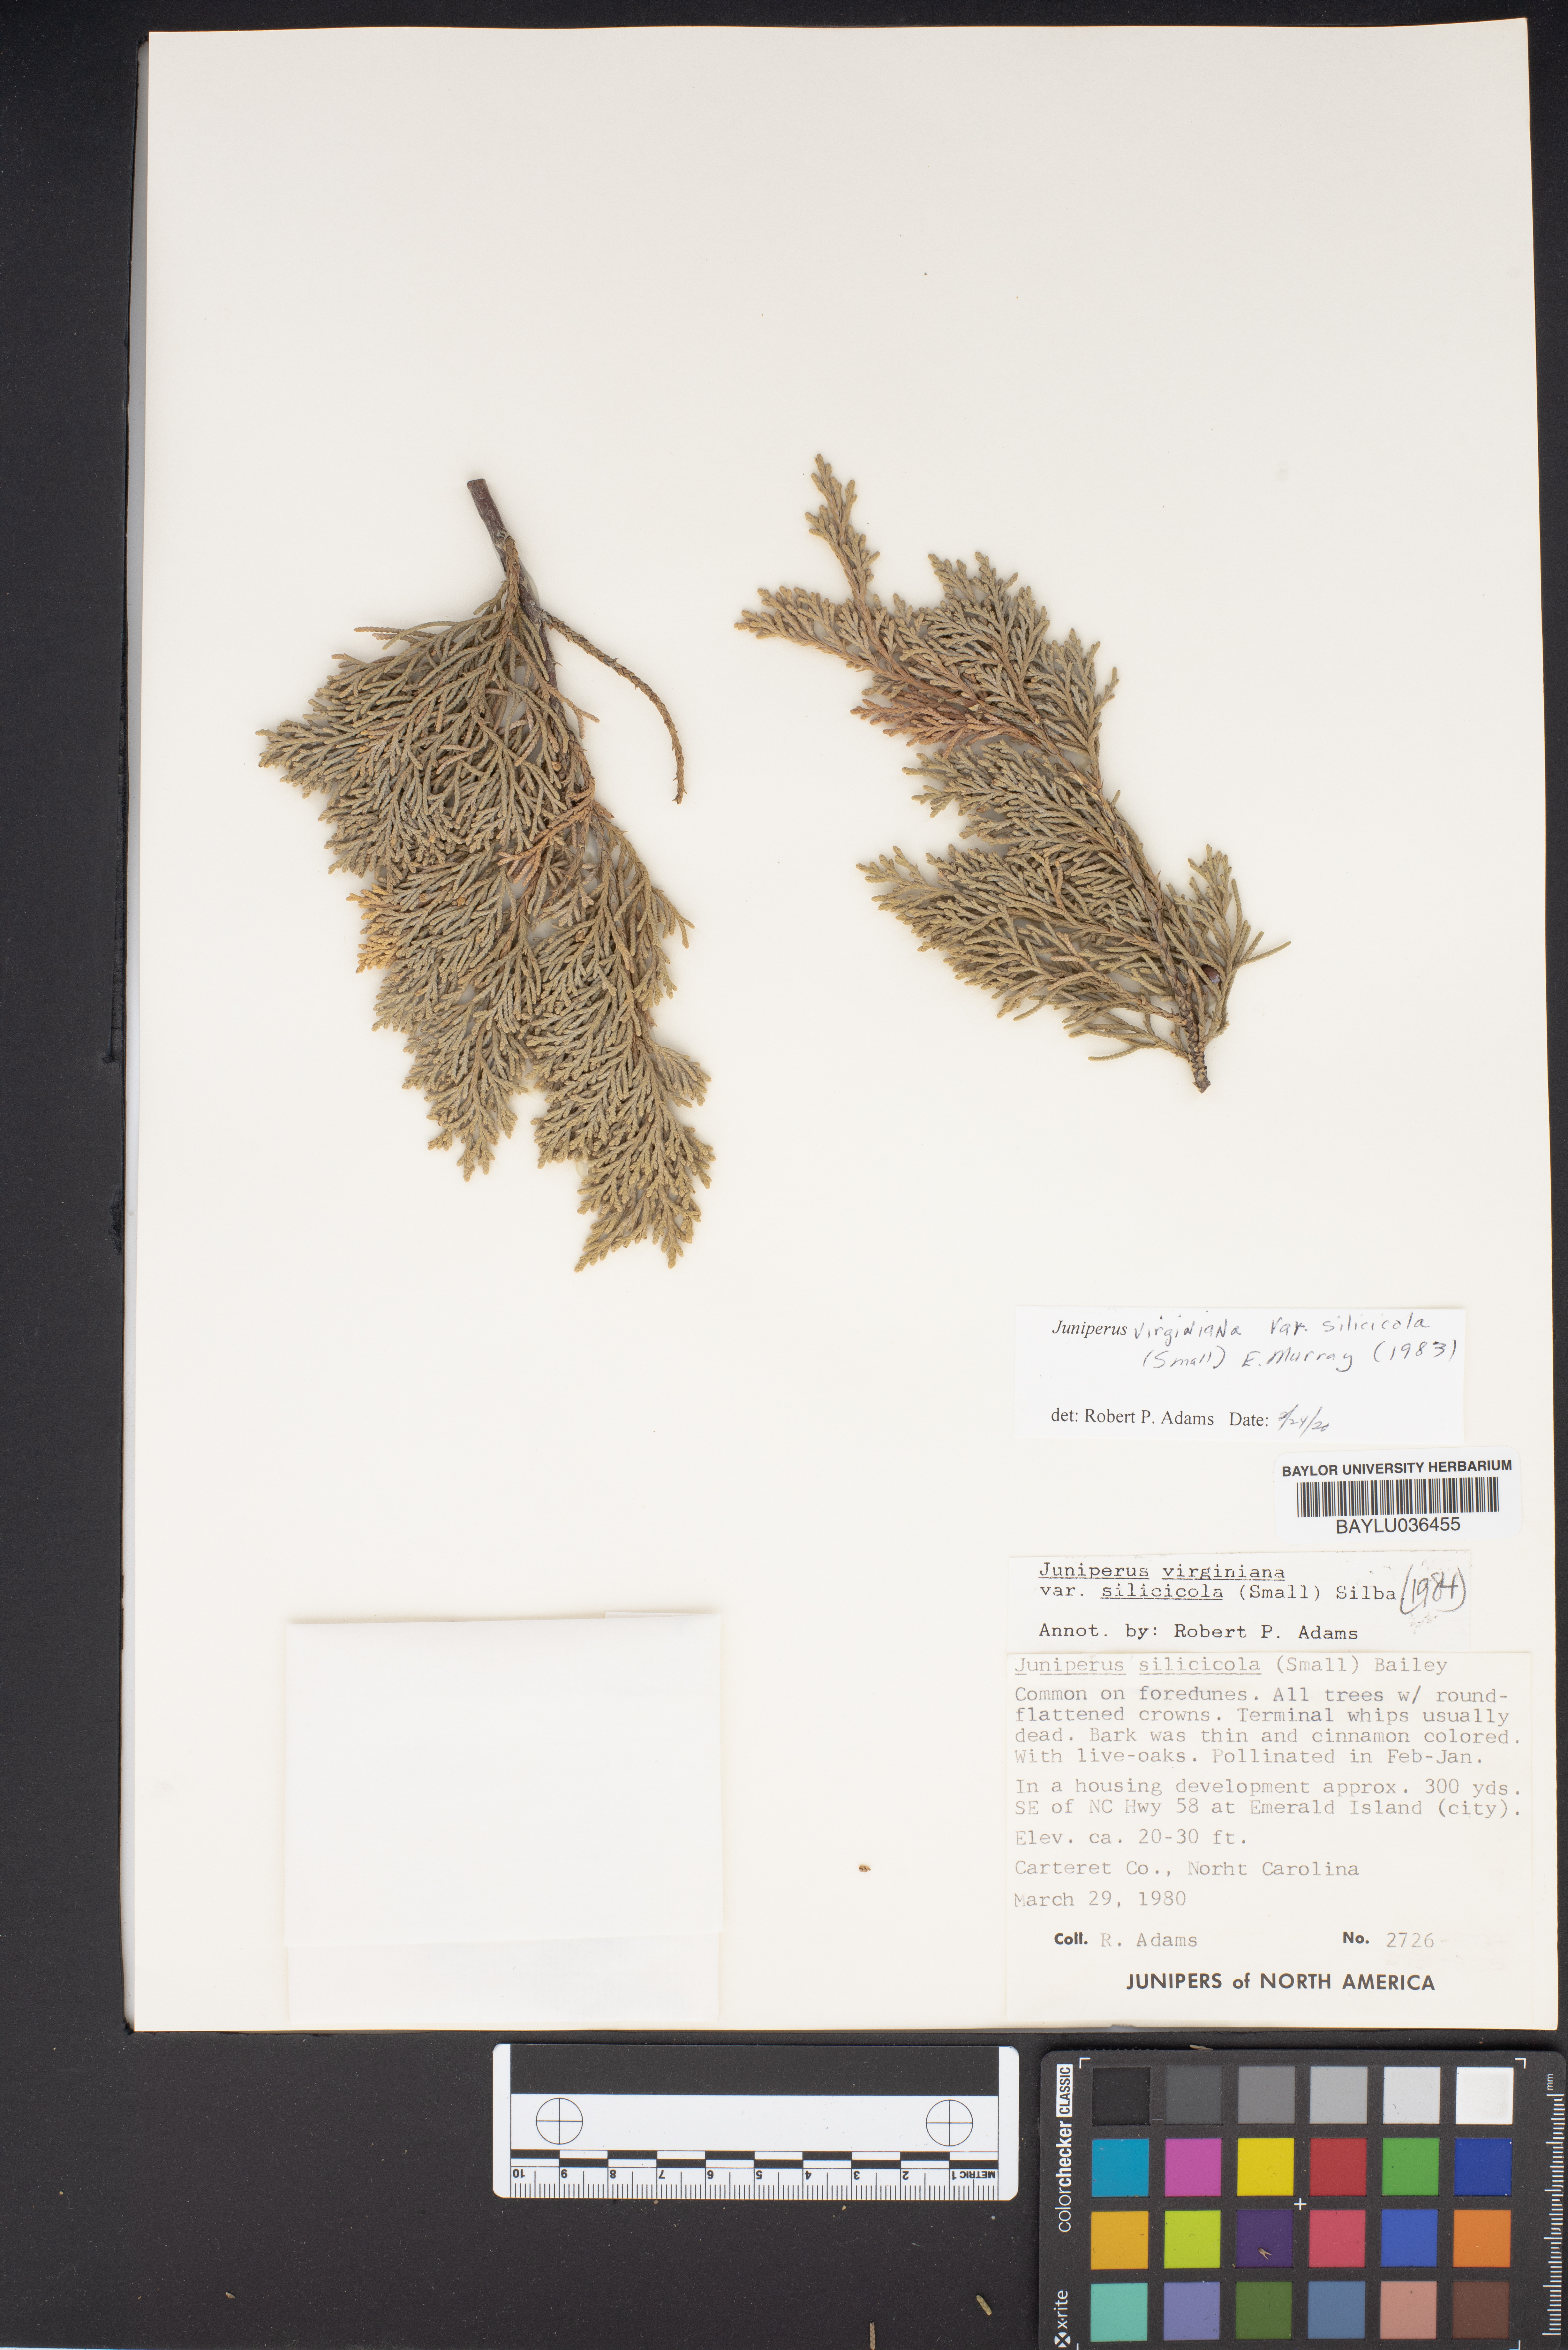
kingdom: Plantae
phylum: Tracheophyta
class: Pinopsida
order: Pinales
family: Cupressaceae
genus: Juniperus
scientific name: Juniperus virginiana
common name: Red juniper
